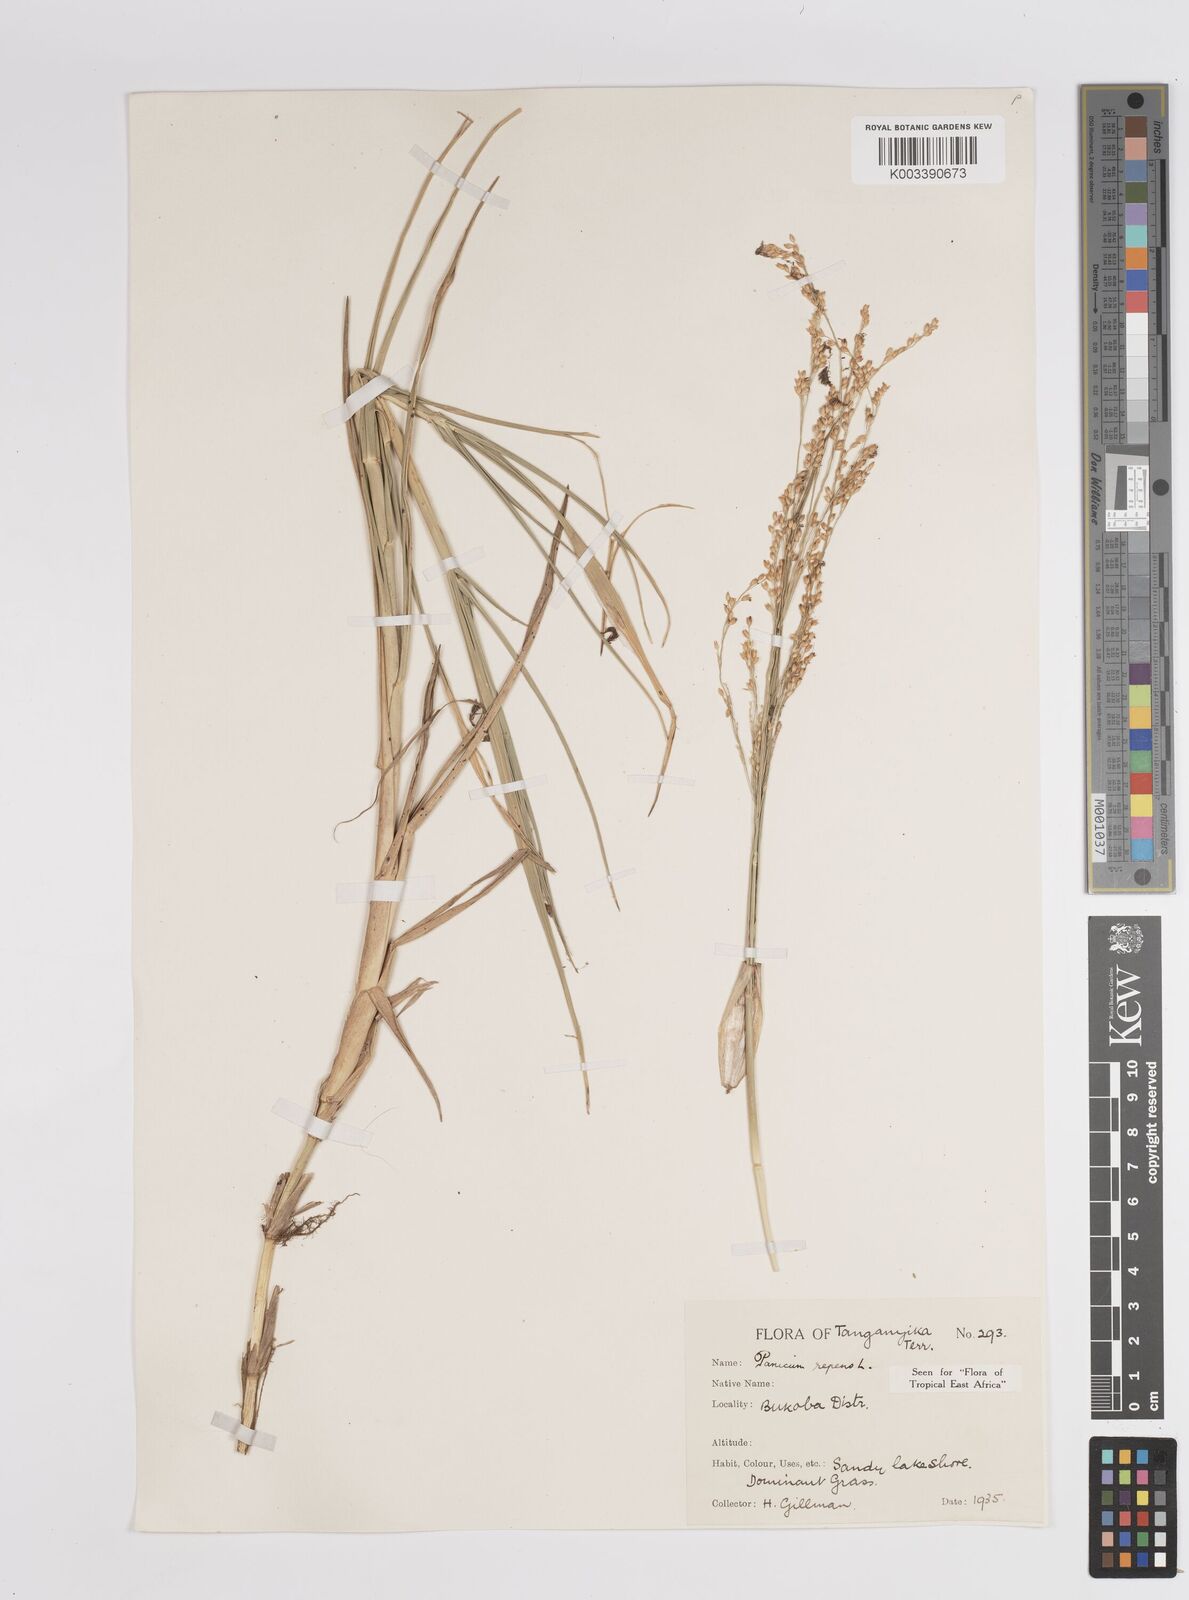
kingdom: Plantae
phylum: Tracheophyta
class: Liliopsida
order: Poales
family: Poaceae
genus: Panicum
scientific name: Panicum repens
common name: Torpedo grass
